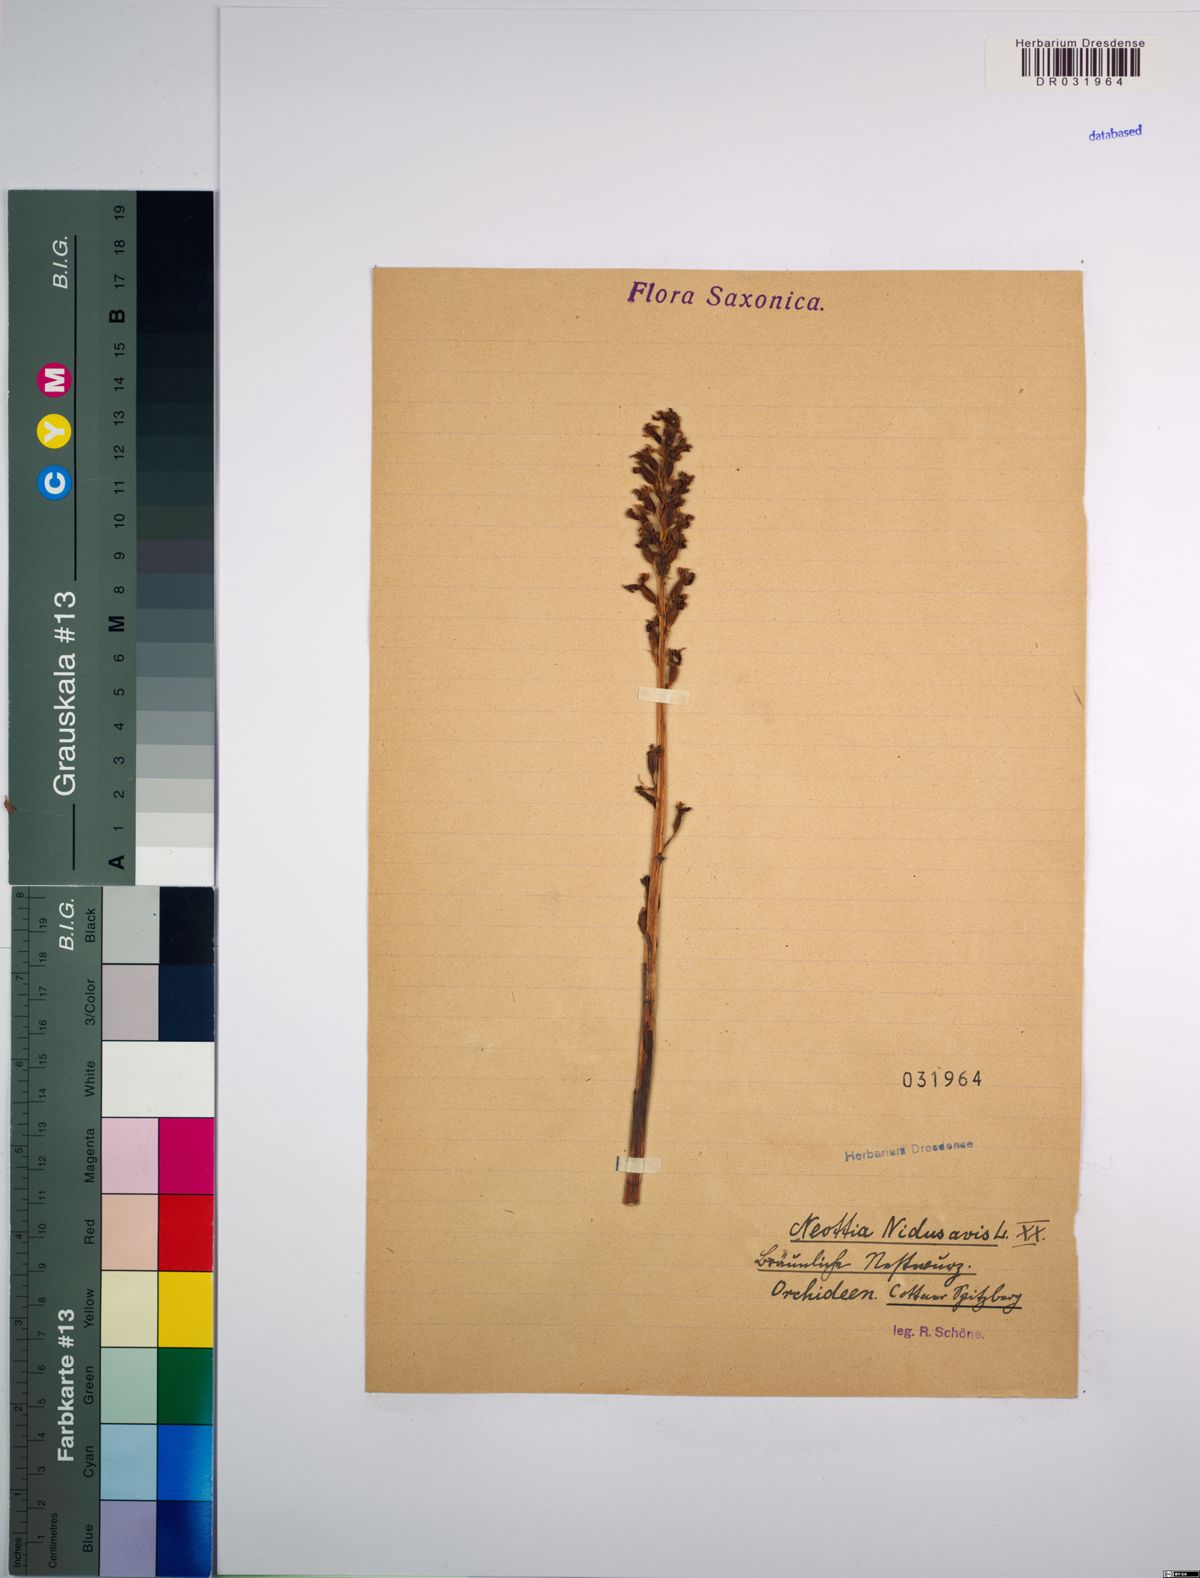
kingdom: Plantae
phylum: Tracheophyta
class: Liliopsida
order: Asparagales
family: Orchidaceae
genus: Neottia
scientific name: Neottia nidus-avis
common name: Bird's-nest orchid
